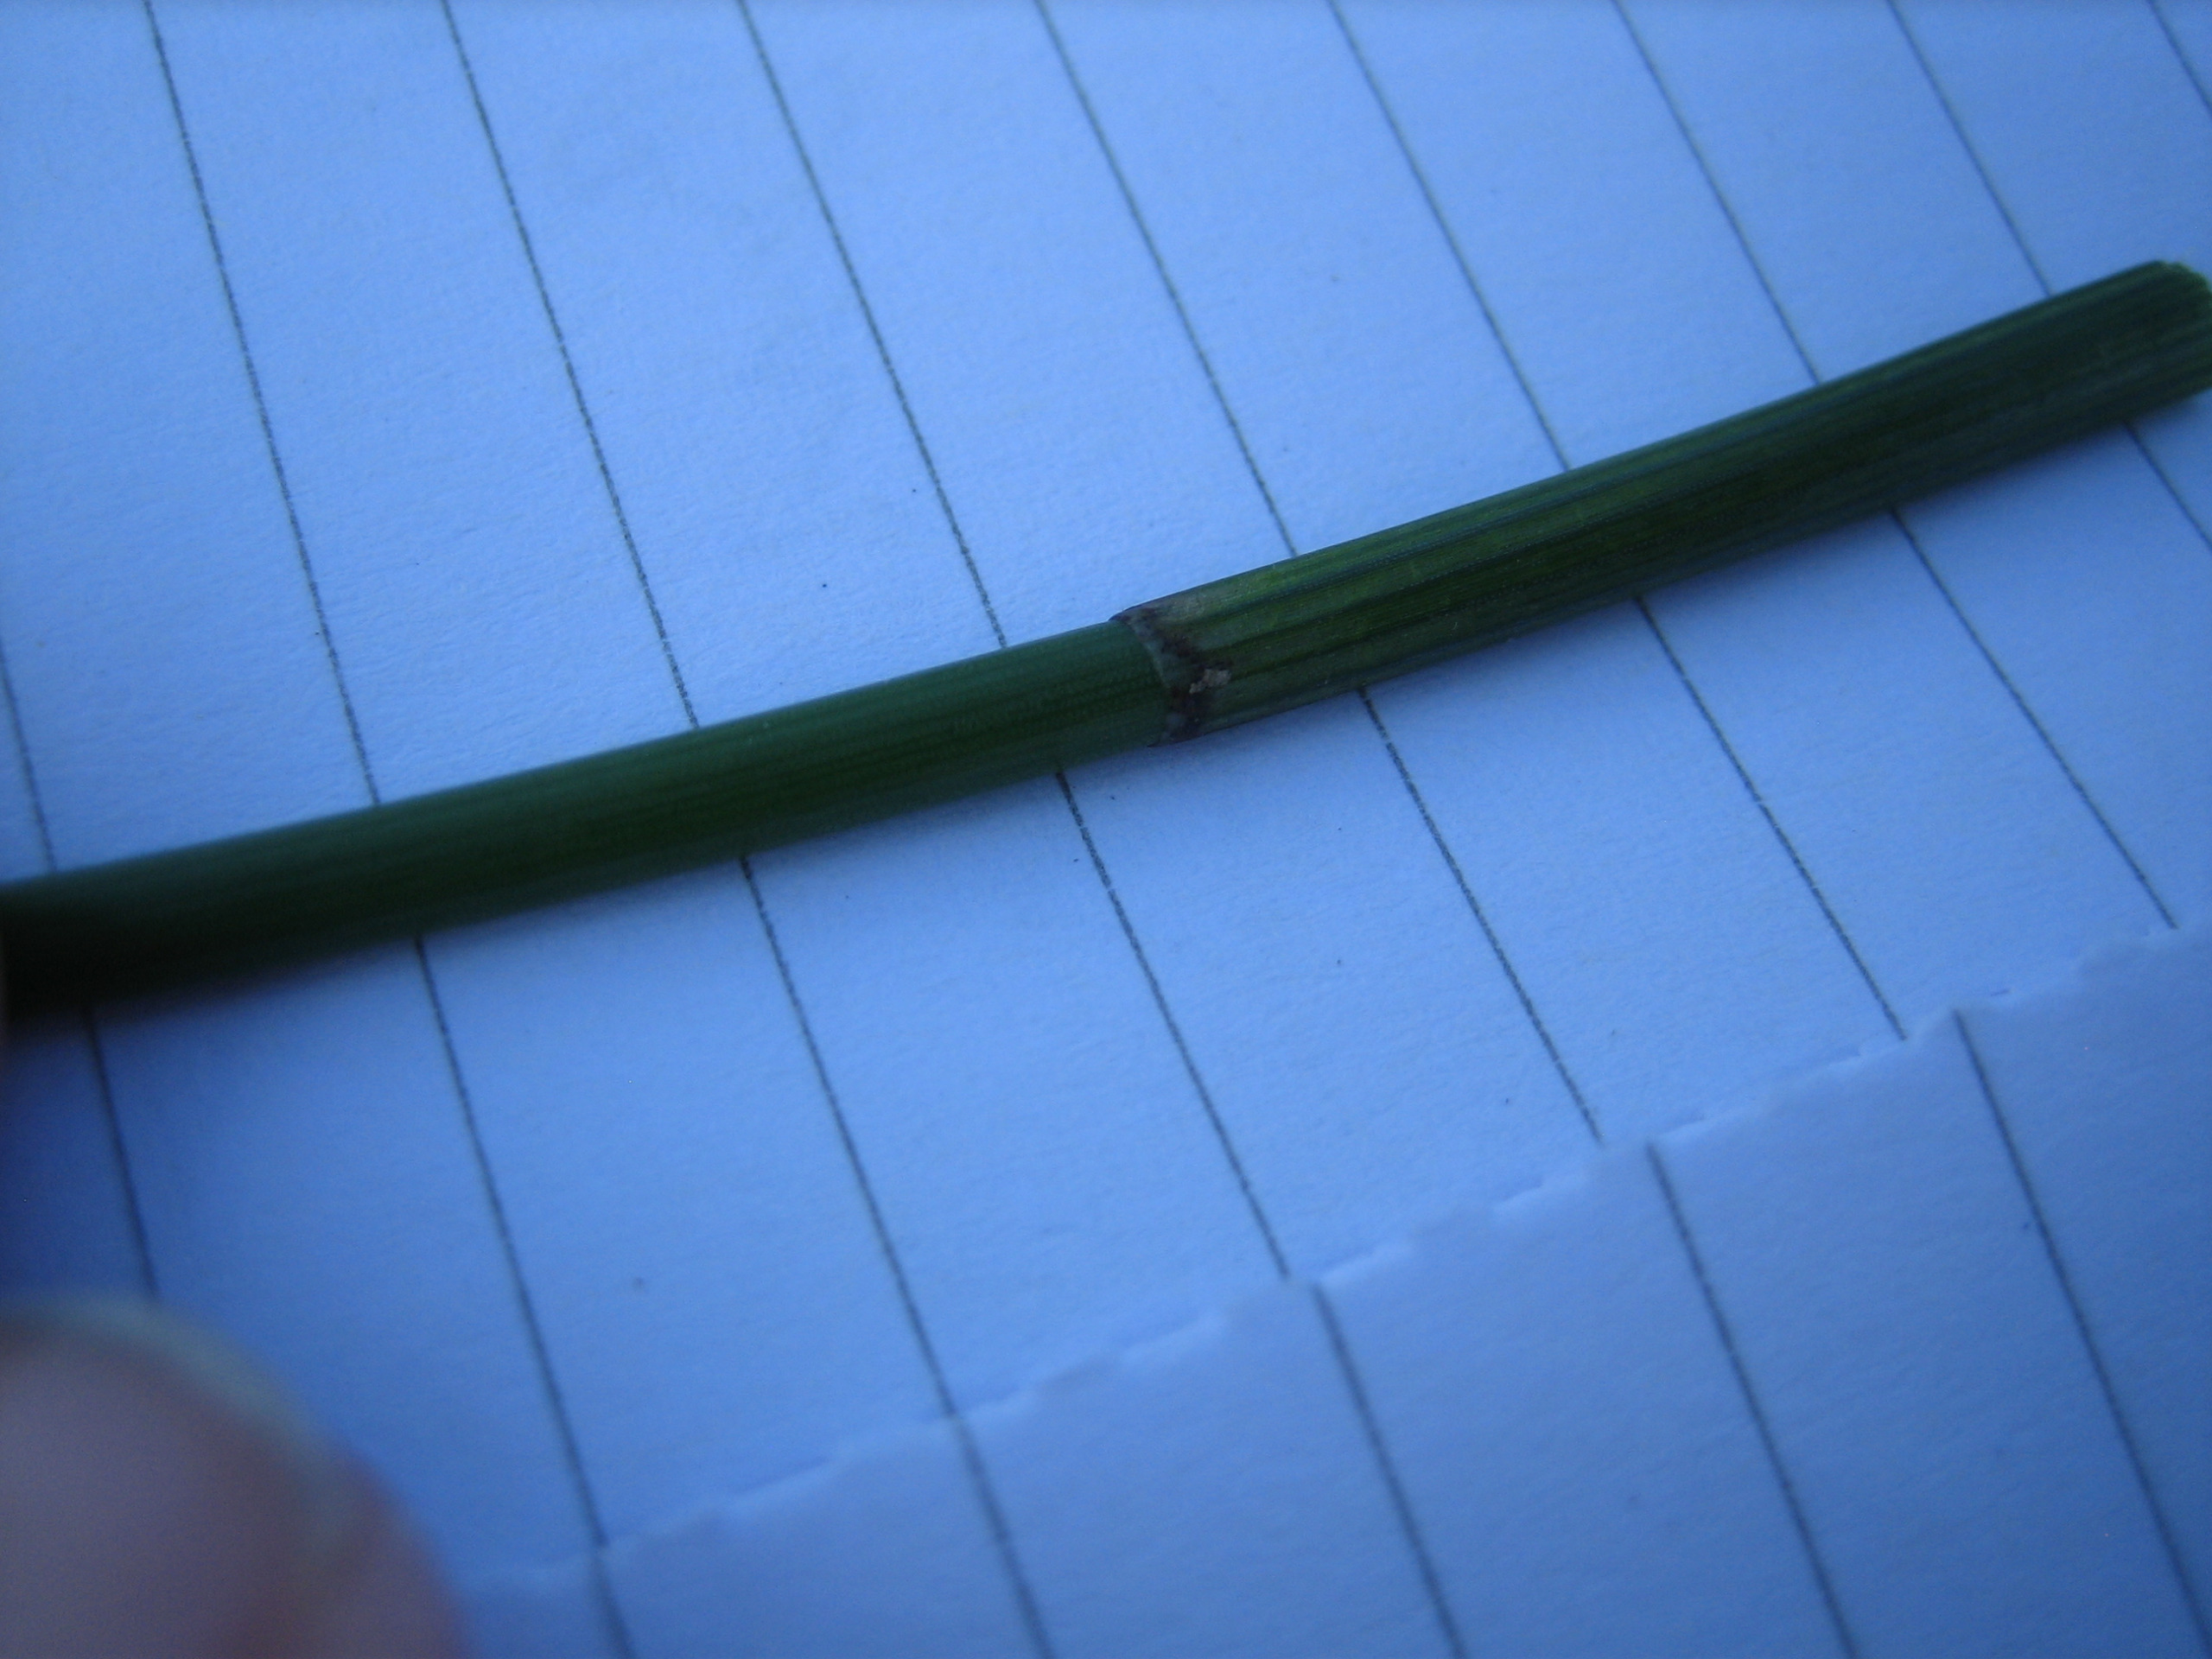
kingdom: Plantae
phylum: Tracheophyta
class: Liliopsida
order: Poales
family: Cyperaceae
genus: Eleocharis
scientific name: Eleocharis palustris
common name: Almindelig sumpstrå
